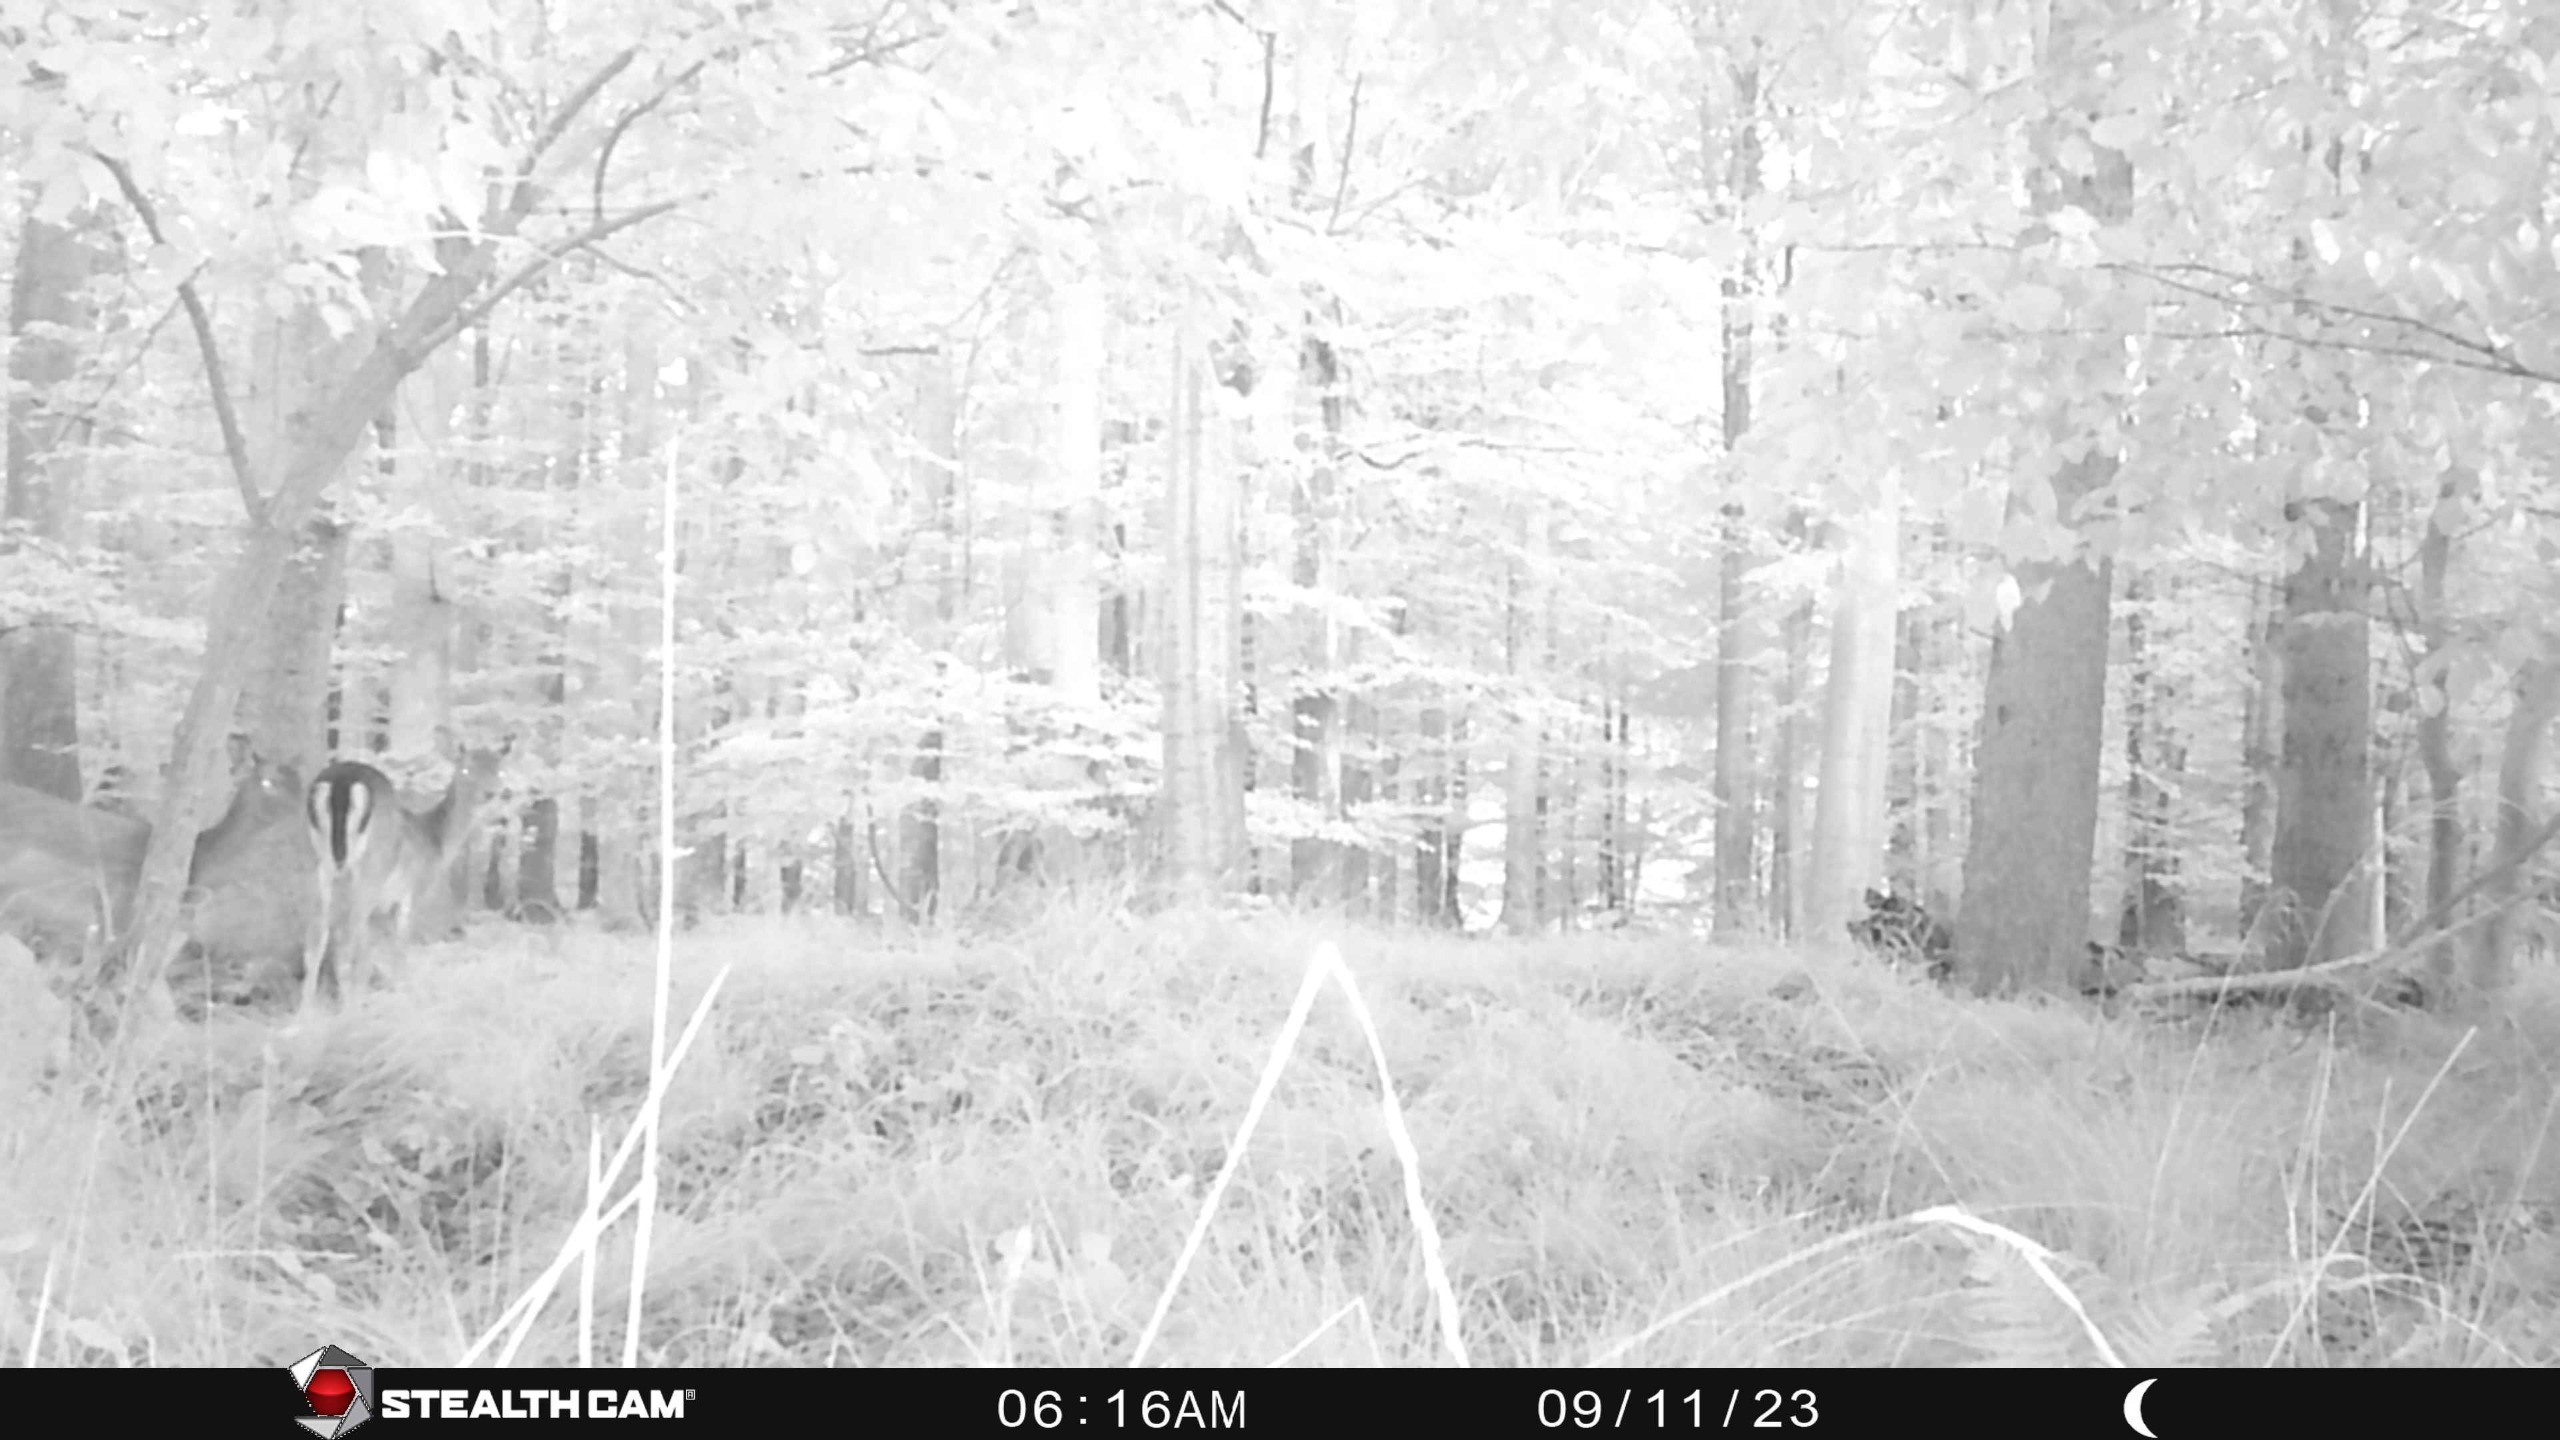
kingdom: Animalia
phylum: Chordata
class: Mammalia
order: Artiodactyla
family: Cervidae
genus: Dama
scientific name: Dama dama
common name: Dådyr
